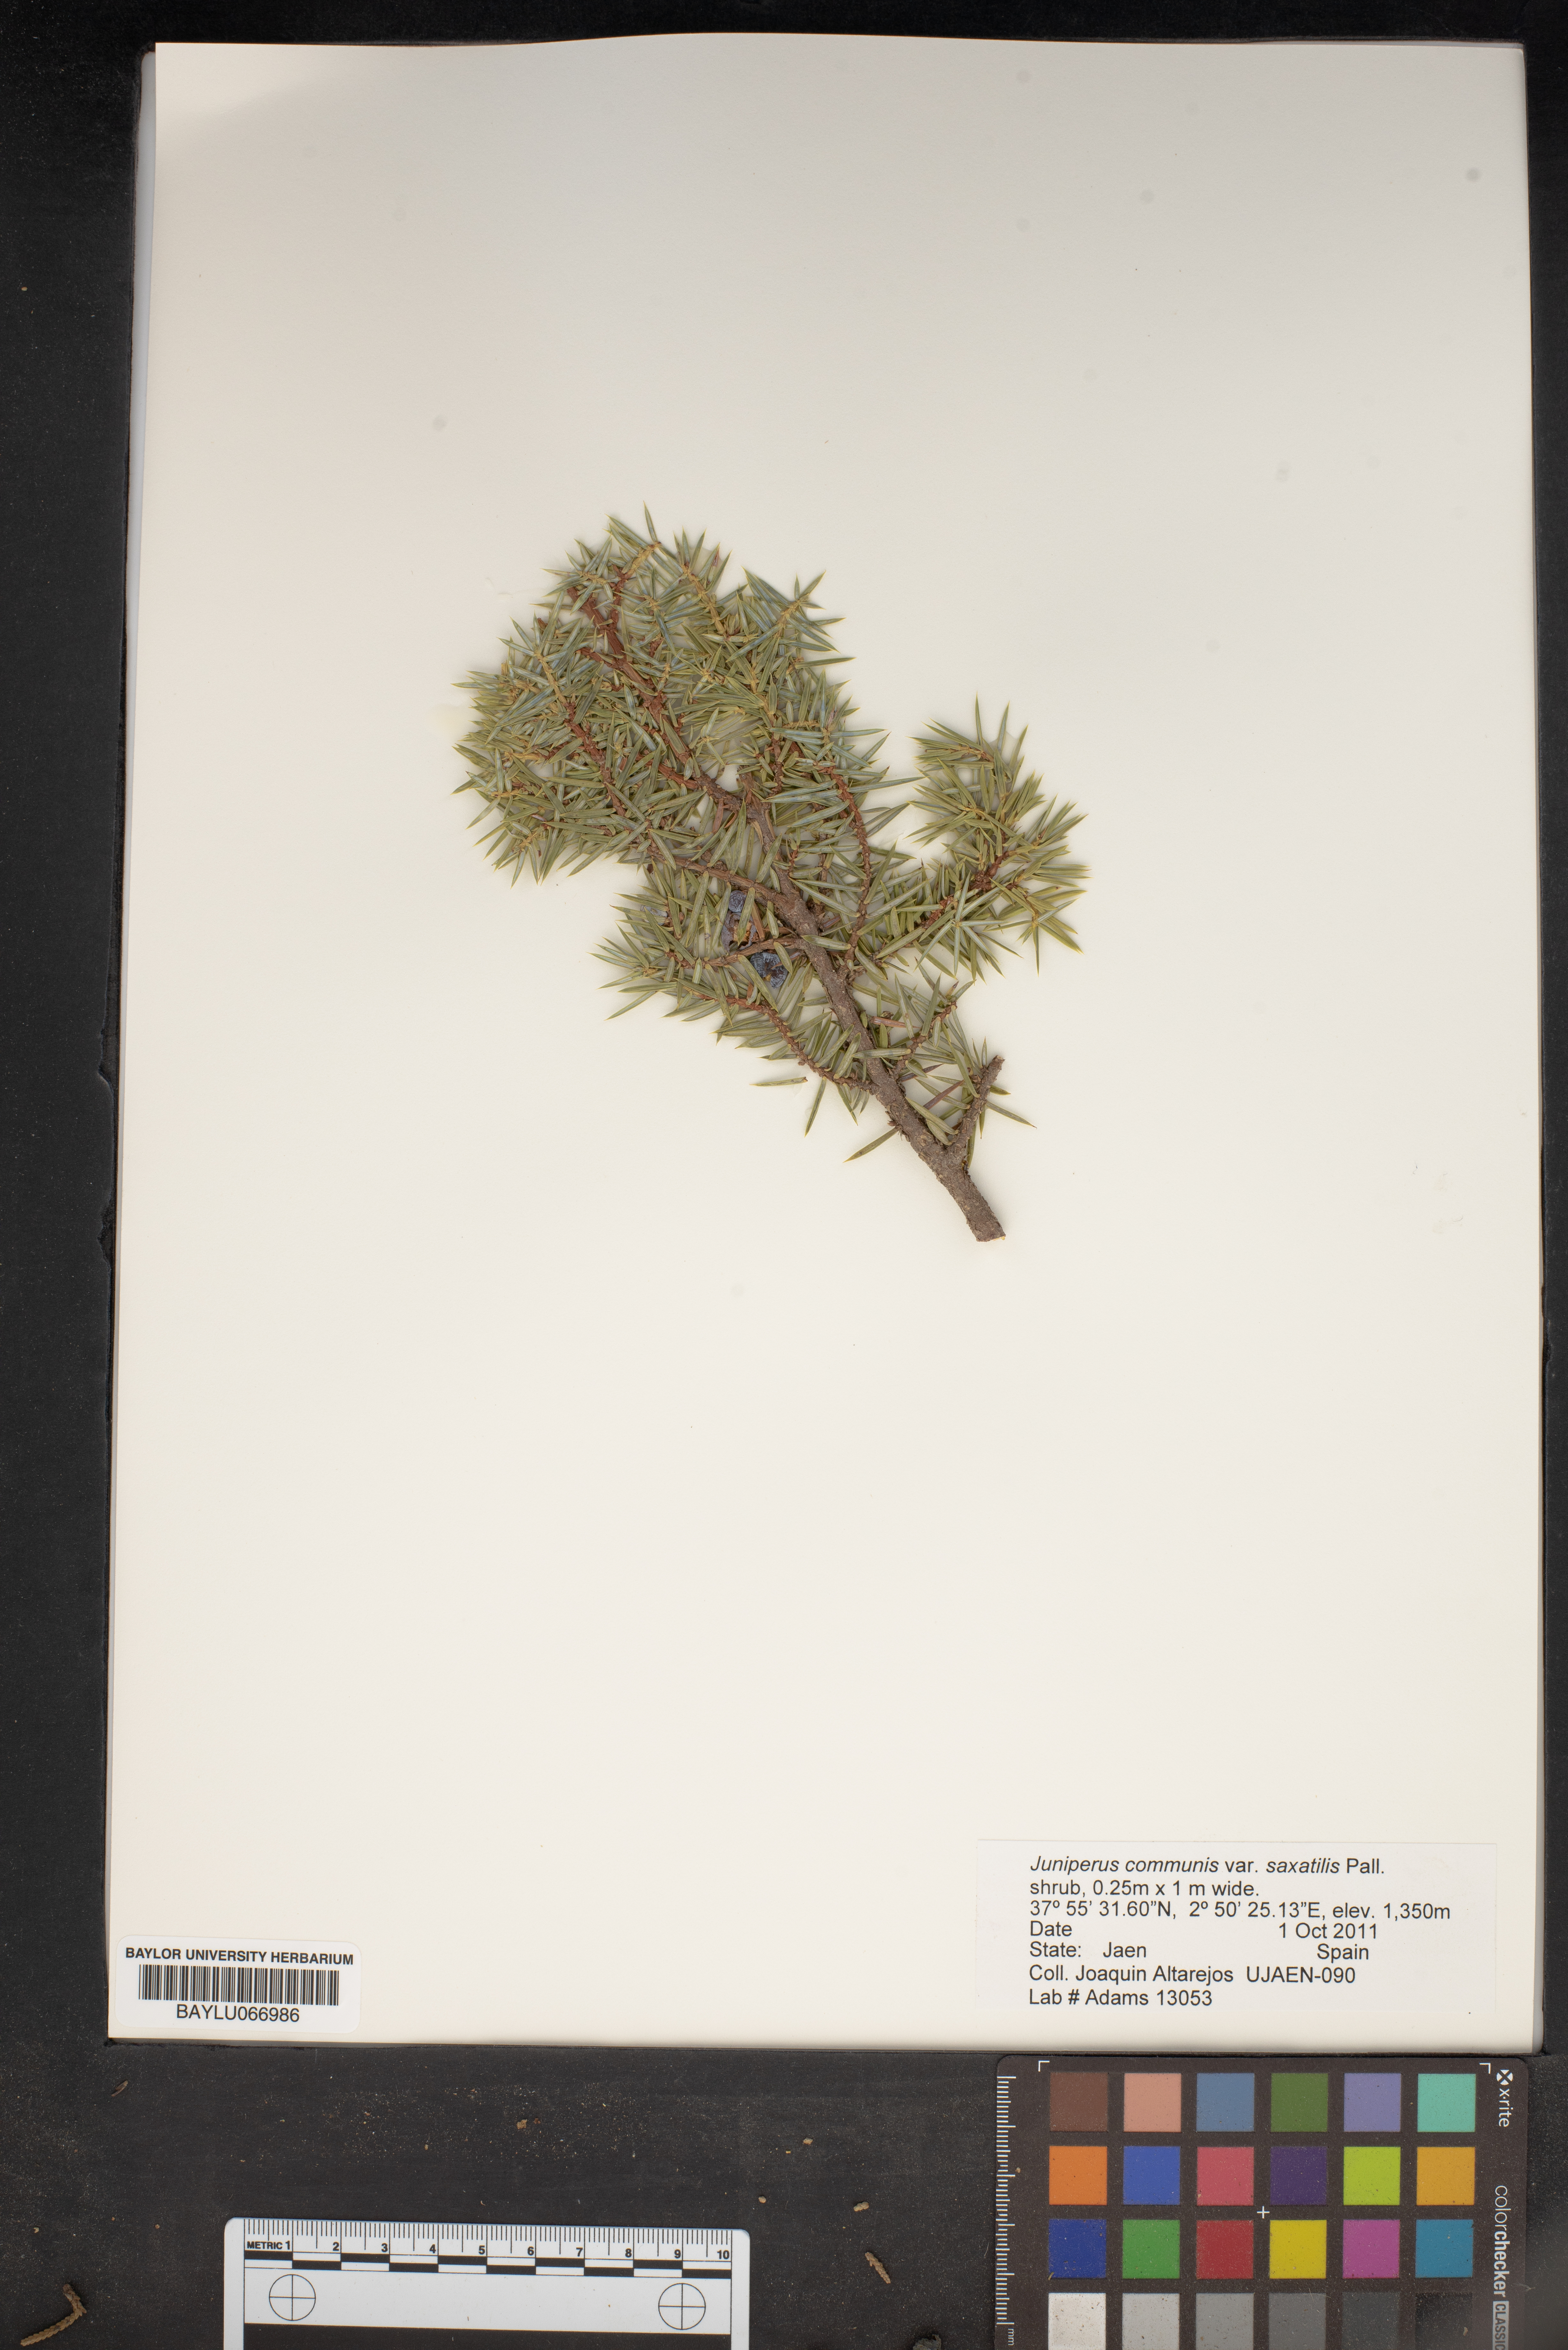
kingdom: Plantae
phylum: Tracheophyta
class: Pinopsida
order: Pinales
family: Cupressaceae
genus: Juniperus
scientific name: Juniperus communis
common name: Common juniper
